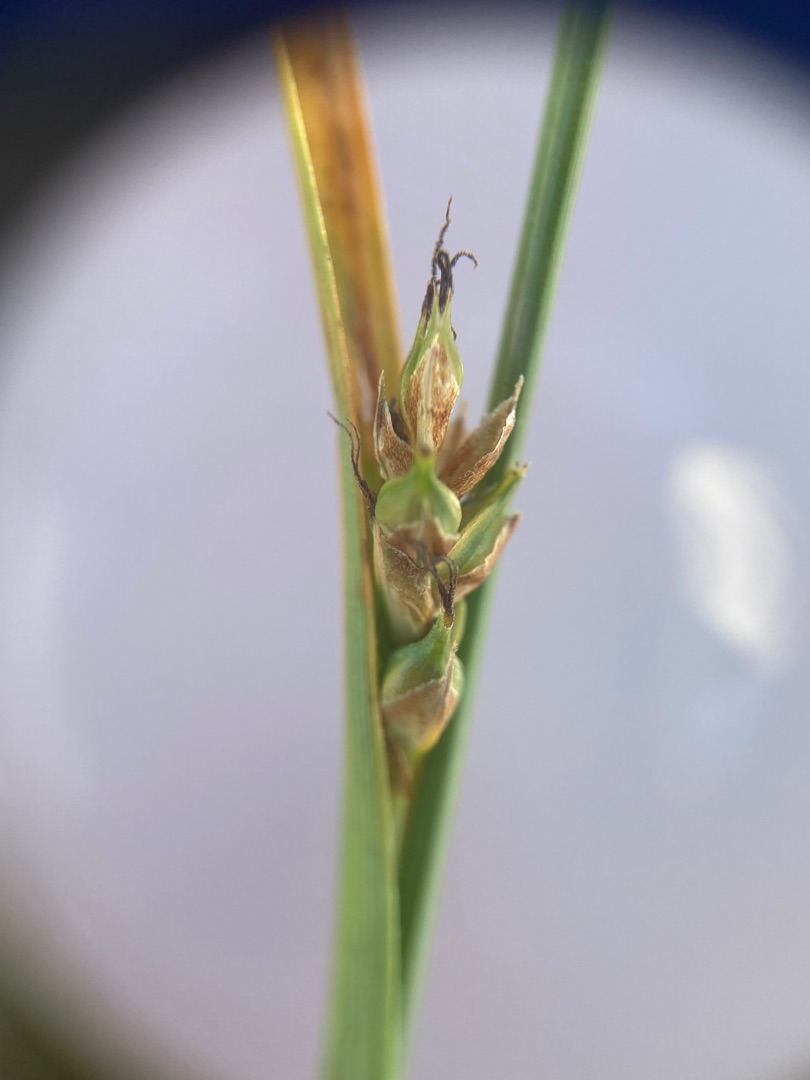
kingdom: Plantae
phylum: Tracheophyta
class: Liliopsida
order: Poales
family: Cyperaceae
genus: Carex
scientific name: Carex distans
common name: Fjernakset star
